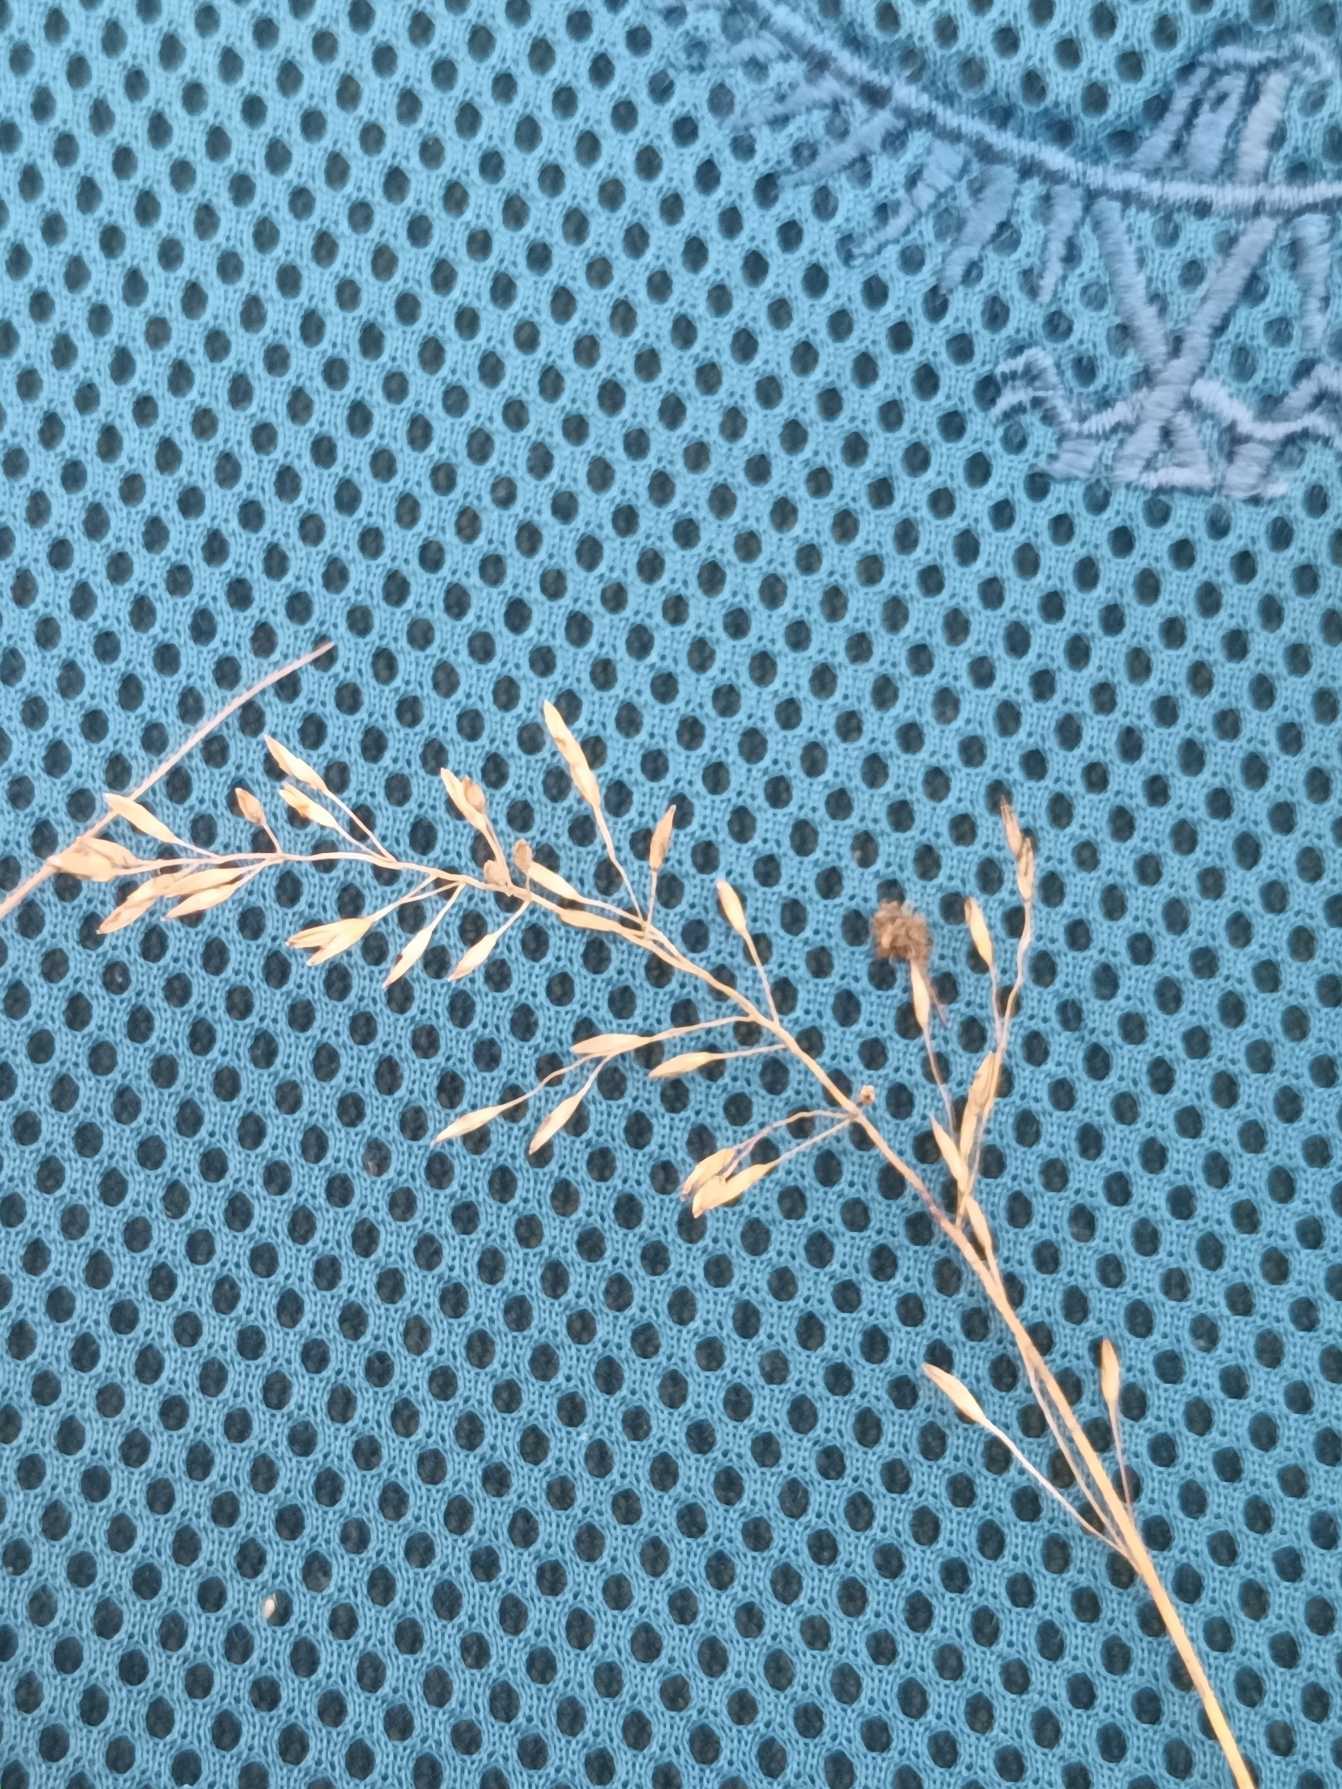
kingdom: Plantae
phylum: Tracheophyta
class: Liliopsida
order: Poales
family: Poaceae
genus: Agrostis
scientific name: Agrostis canina
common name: Hunde-hvene
